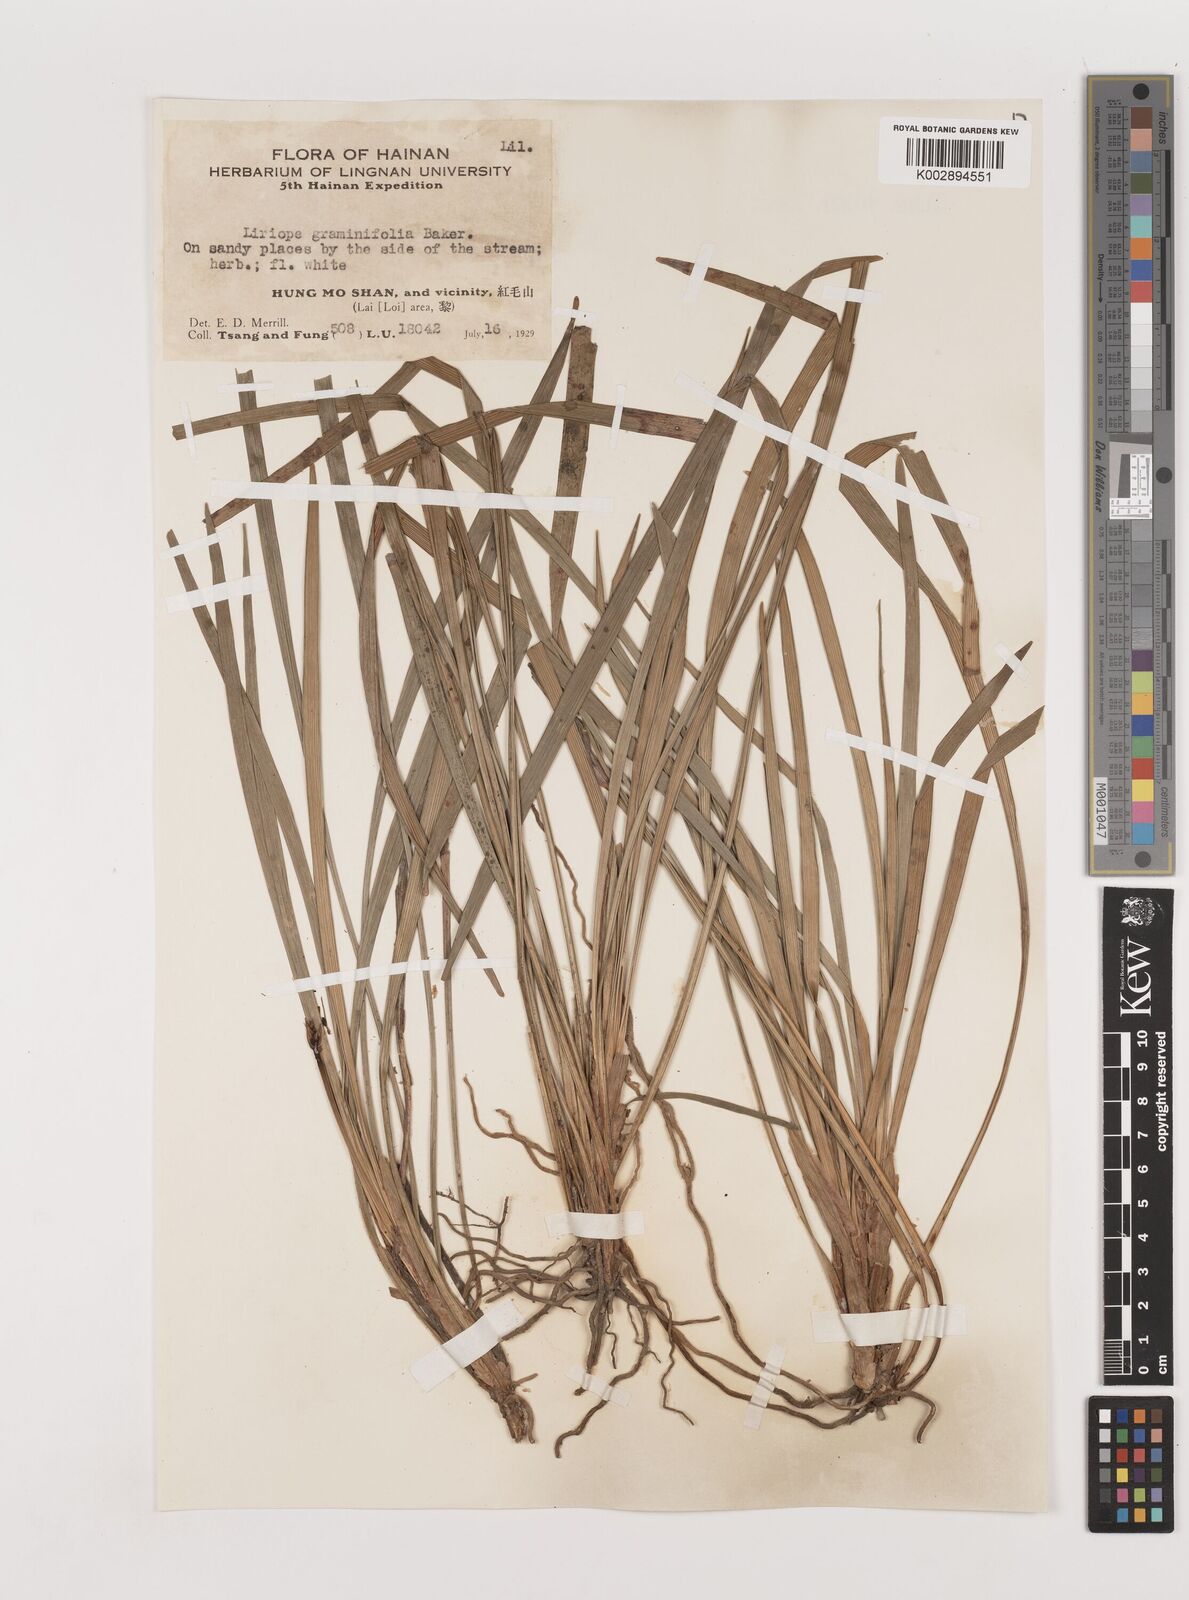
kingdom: Plantae
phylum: Tracheophyta
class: Liliopsida
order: Asparagales
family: Asparagaceae
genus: Liriope
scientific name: Liriope spicata
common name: Creeping liriope
